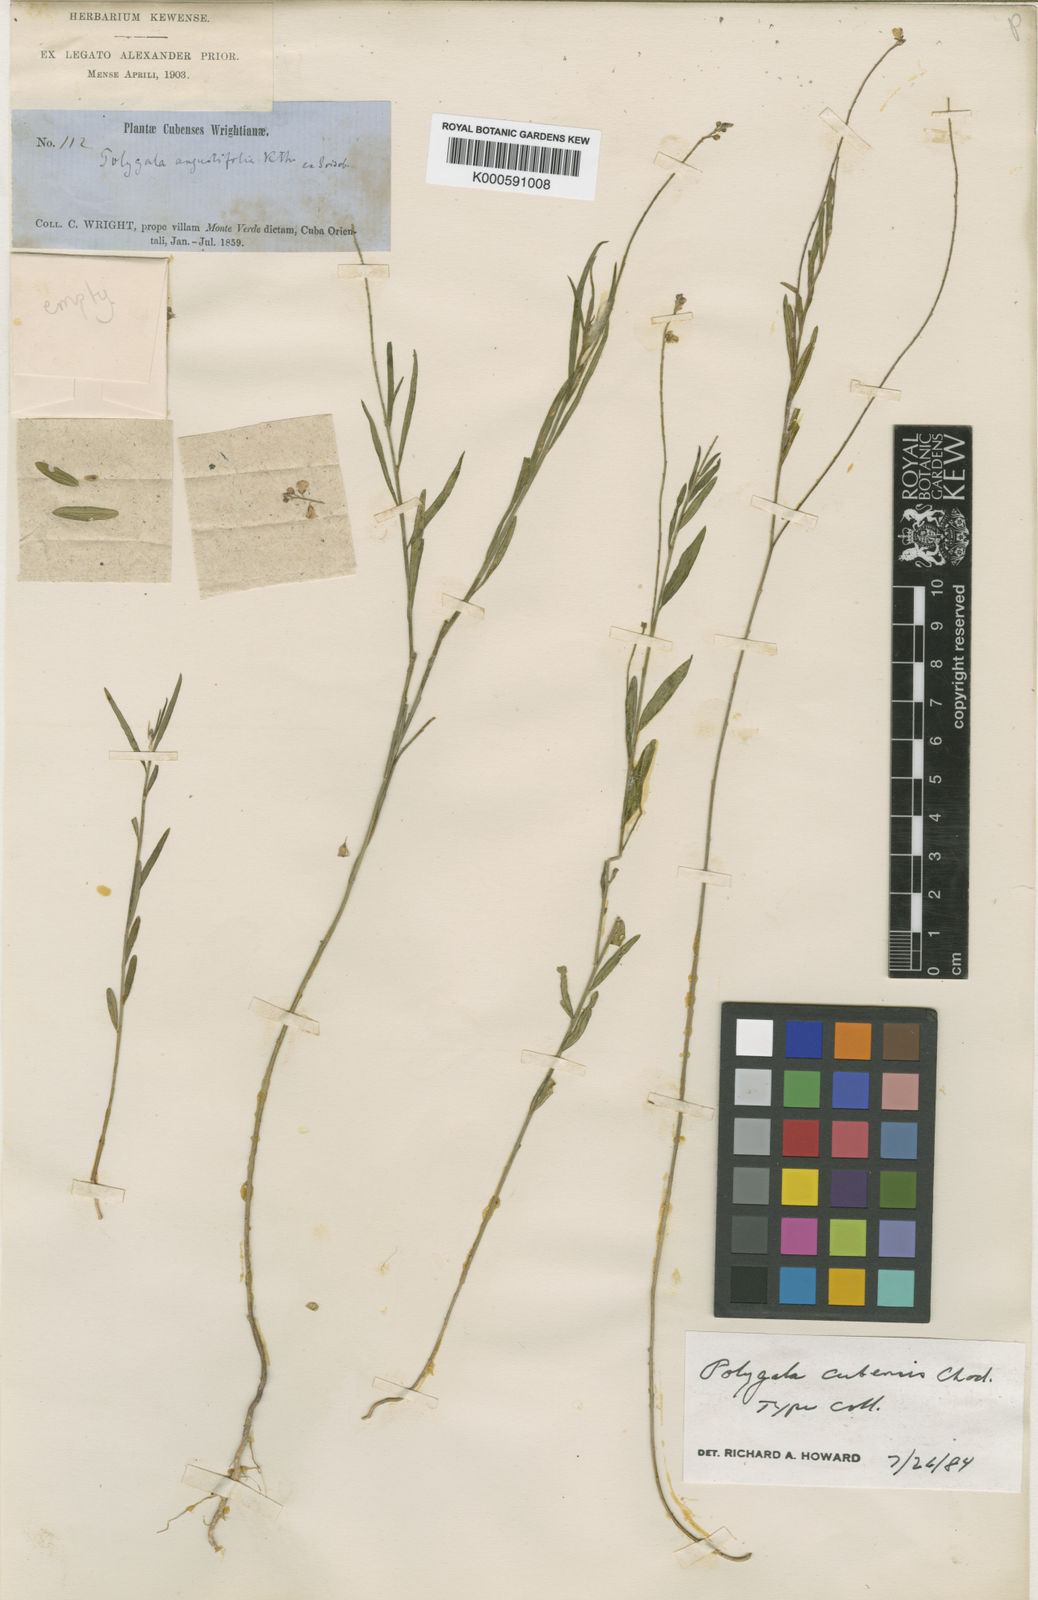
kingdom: Plantae
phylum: Tracheophyta
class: Magnoliopsida
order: Fabales
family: Polygalaceae
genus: Asemeia
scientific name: Asemeia violacea
